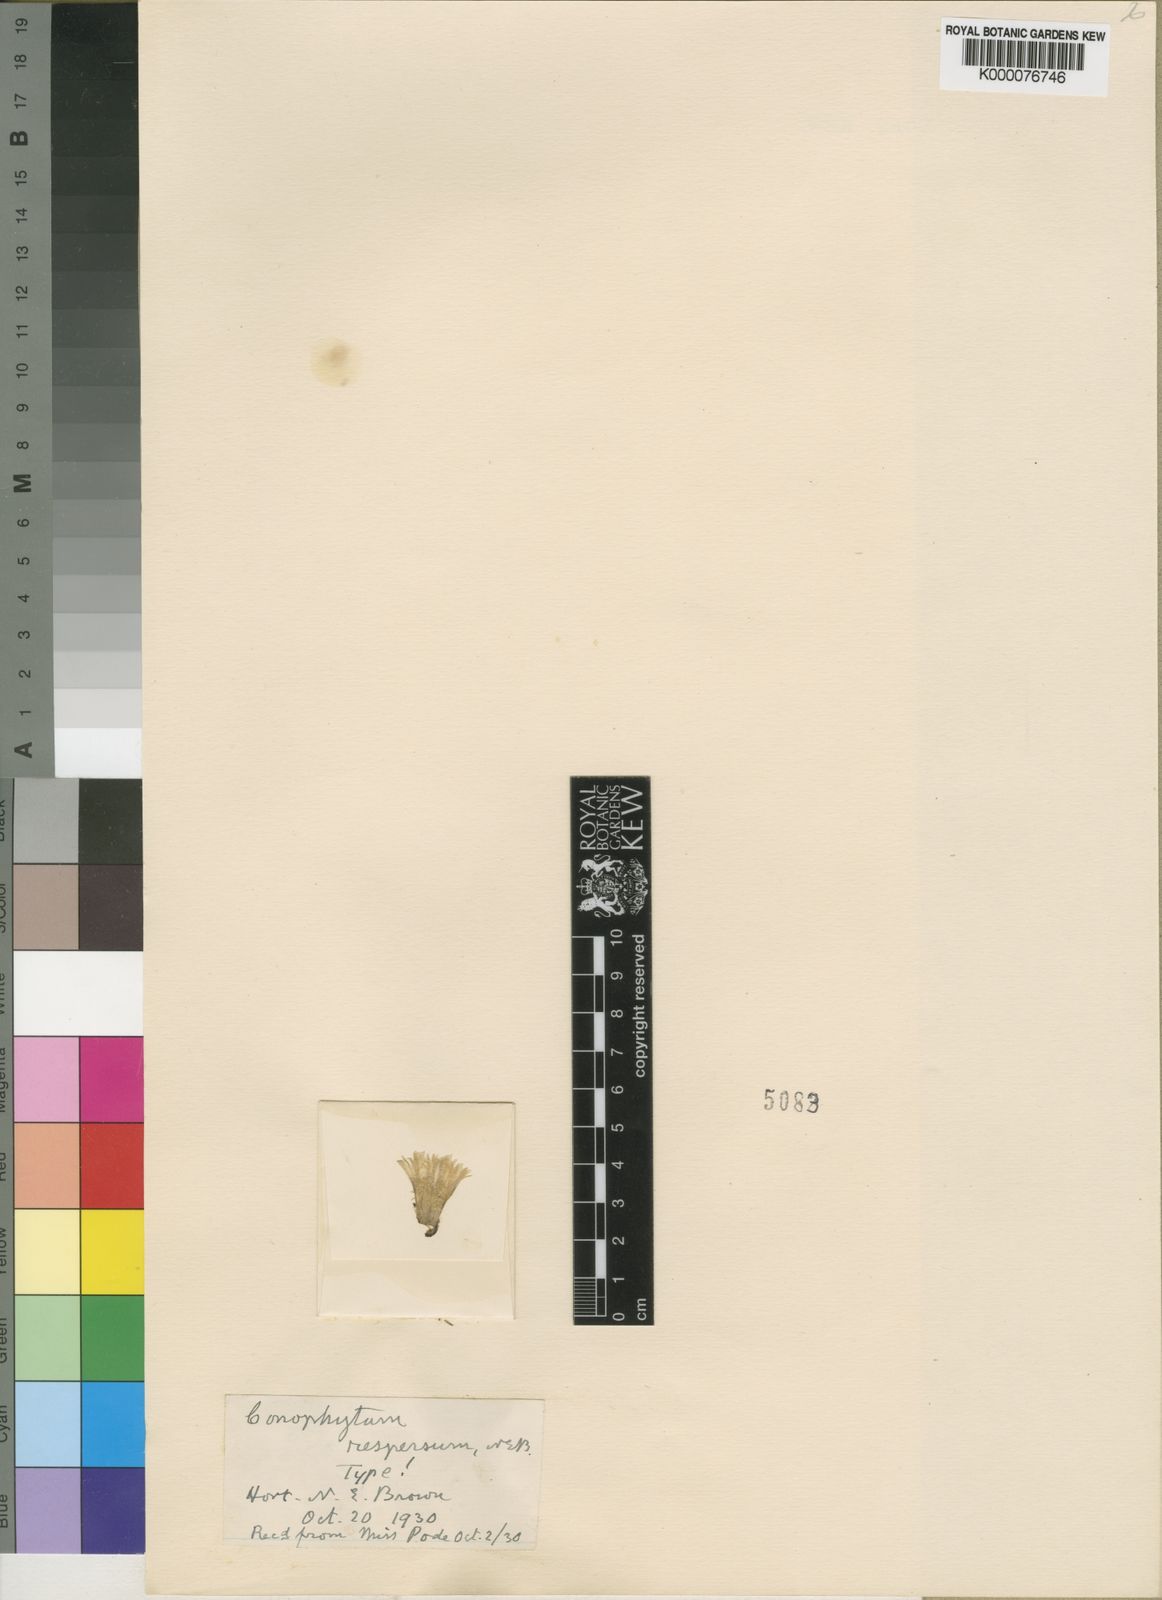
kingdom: Plantae
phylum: Tracheophyta
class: Magnoliopsida
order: Caryophyllales
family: Aizoaceae
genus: Conophytum
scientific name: Conophytum
